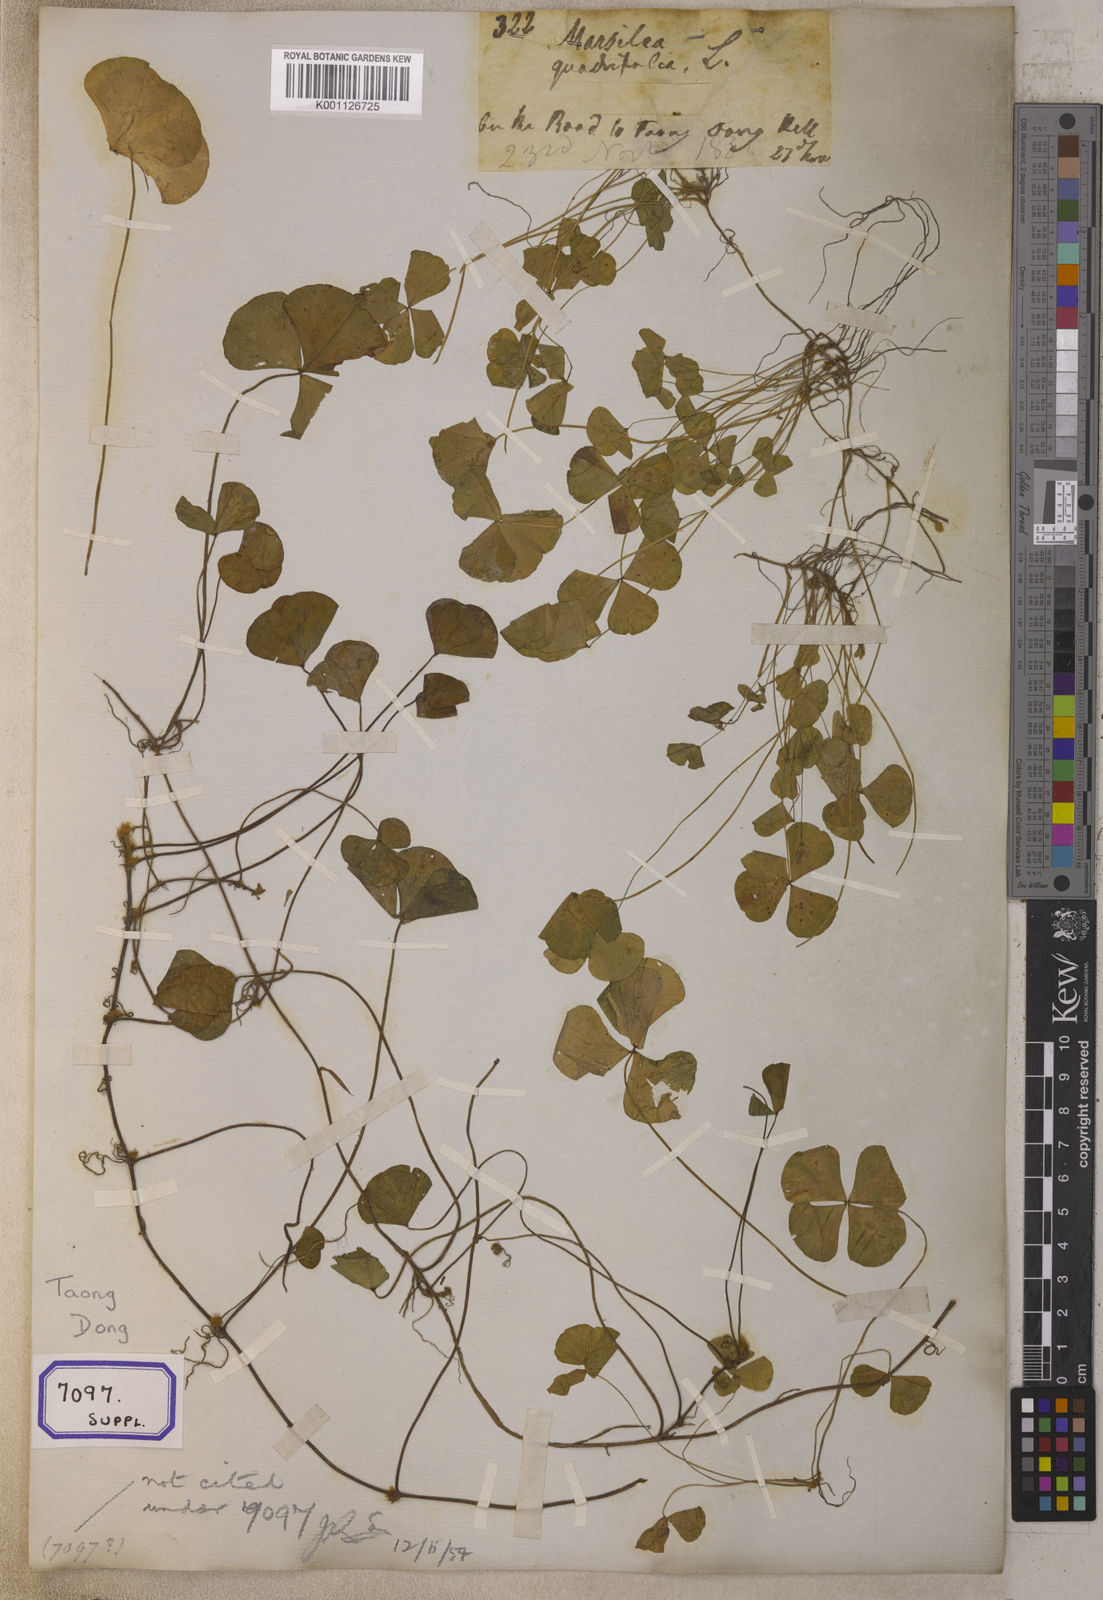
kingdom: Plantae
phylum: Tracheophyta
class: Polypodiopsida
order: Salviniales
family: Marsileaceae
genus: Marsilea
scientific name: Marsilea quadrifolia
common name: Water shamrock
